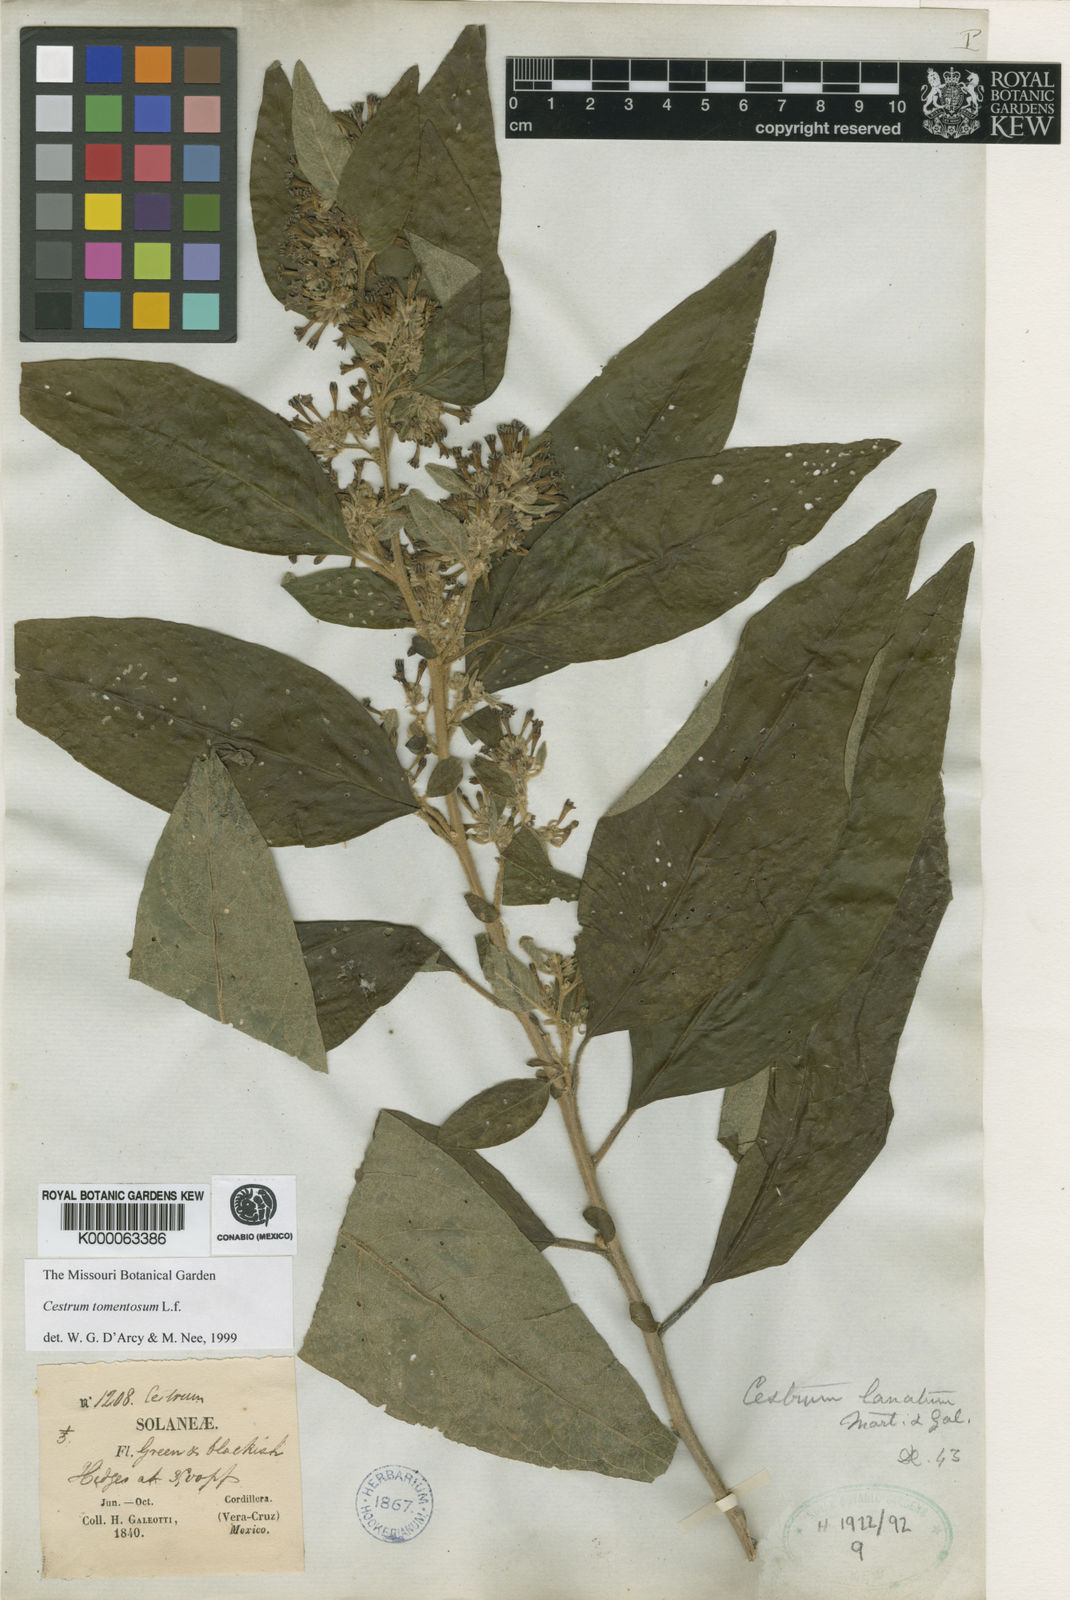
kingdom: Plantae
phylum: Tracheophyta
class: Magnoliopsida
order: Solanales
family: Solanaceae
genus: Cestrum
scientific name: Cestrum tomentosum
